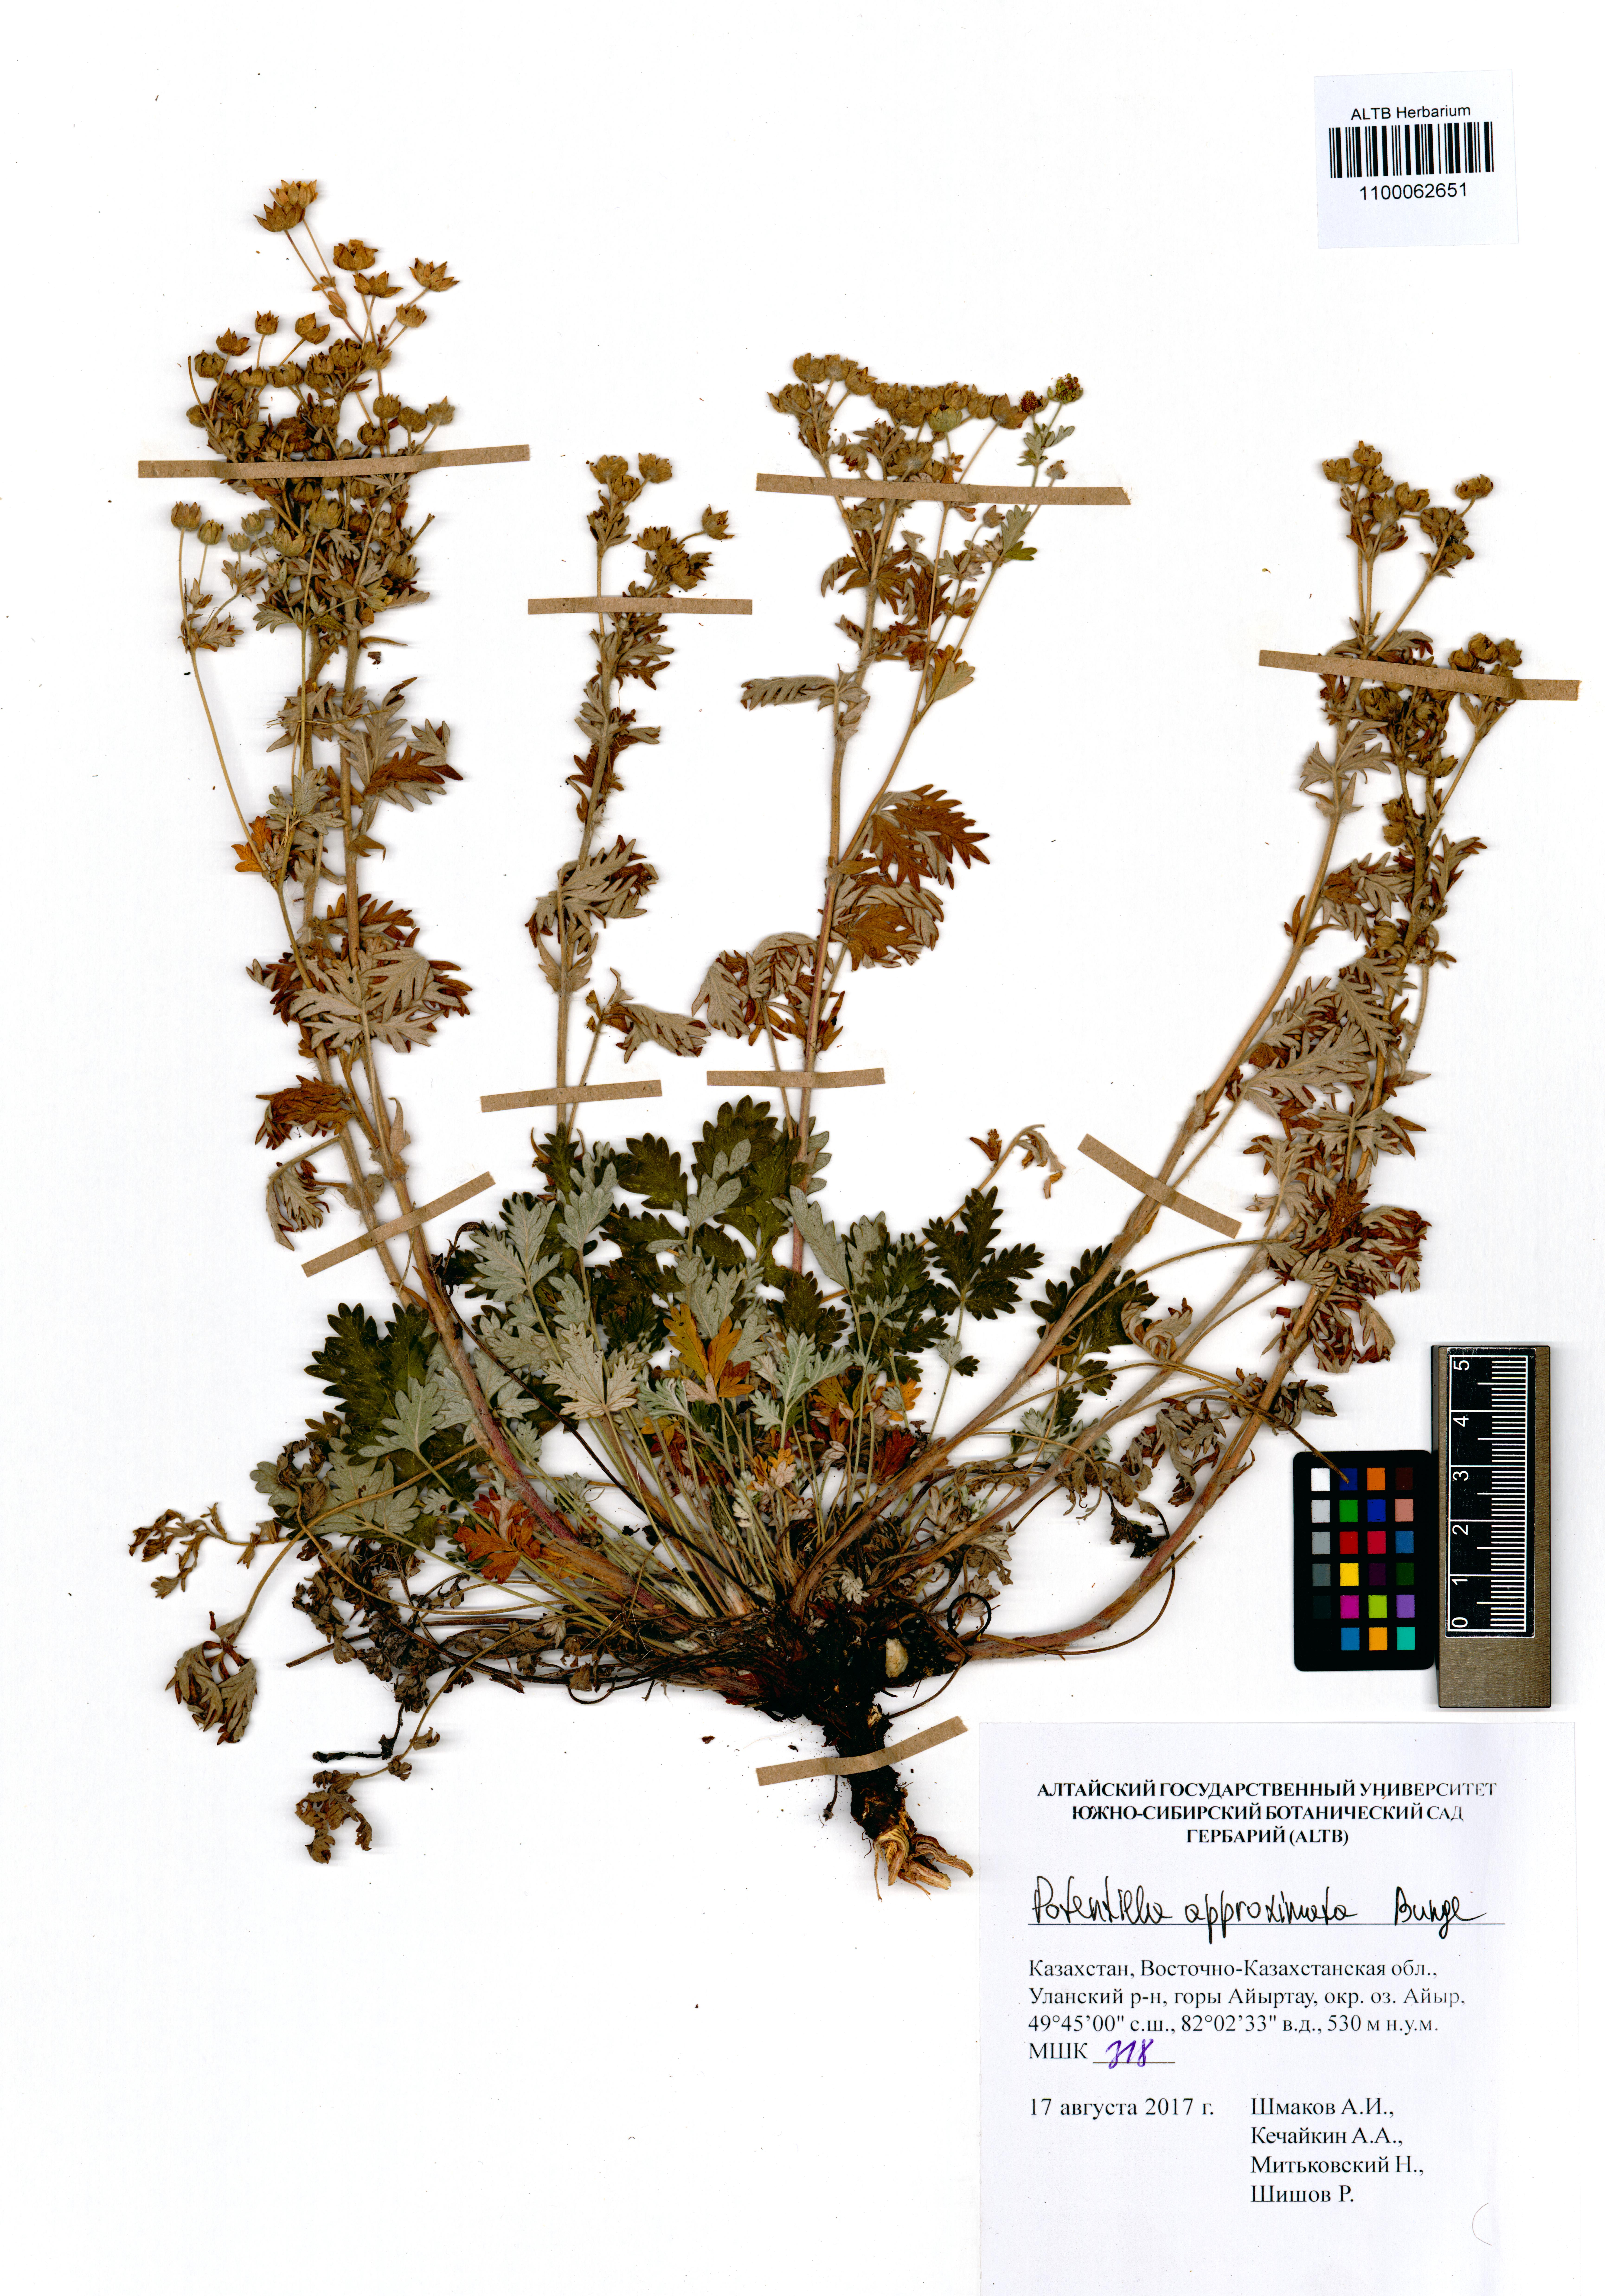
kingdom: Plantae
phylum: Tracheophyta
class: Magnoliopsida
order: Rosales
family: Rosaceae
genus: Potentilla
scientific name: Potentilla conferta
